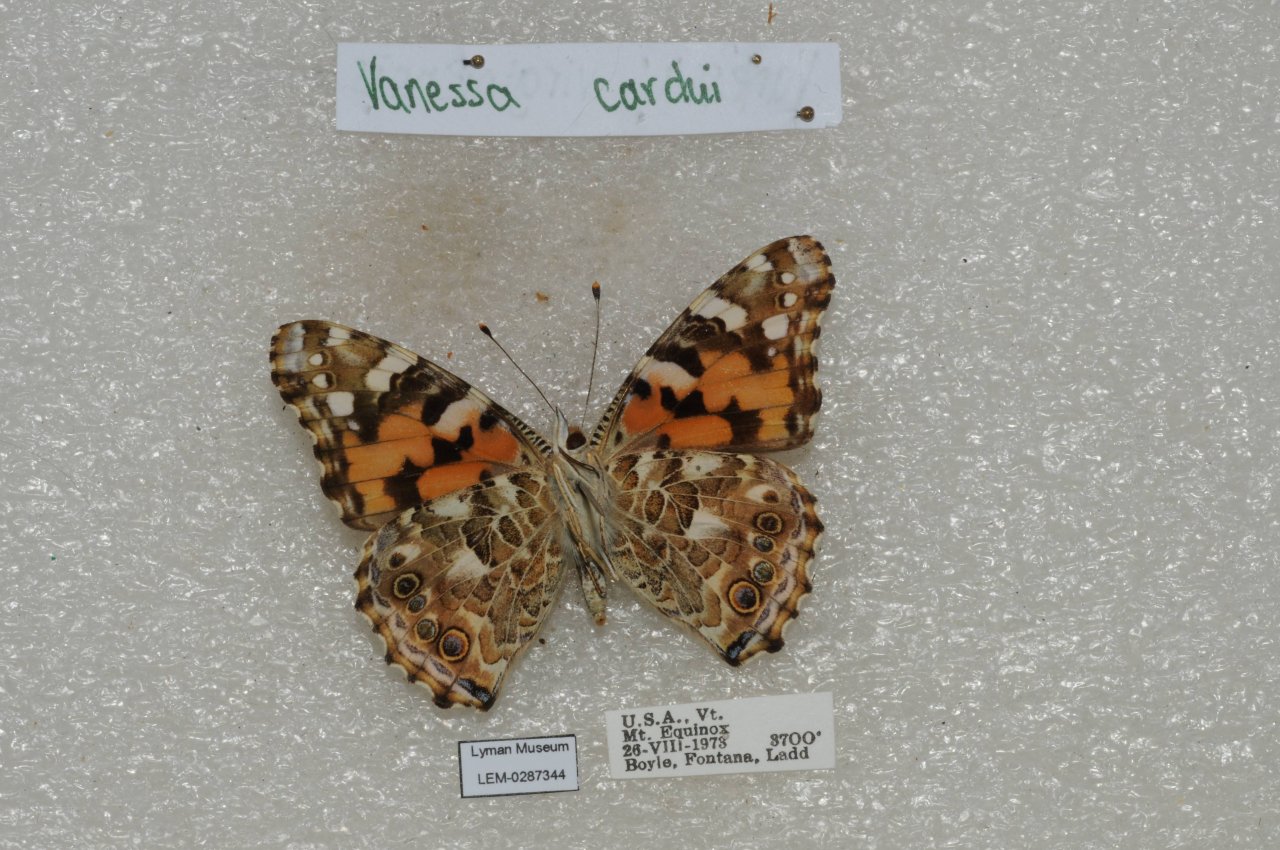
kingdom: Animalia
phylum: Arthropoda
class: Insecta
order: Lepidoptera
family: Nymphalidae
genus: Vanessa
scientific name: Vanessa cardui
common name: Painted Lady
